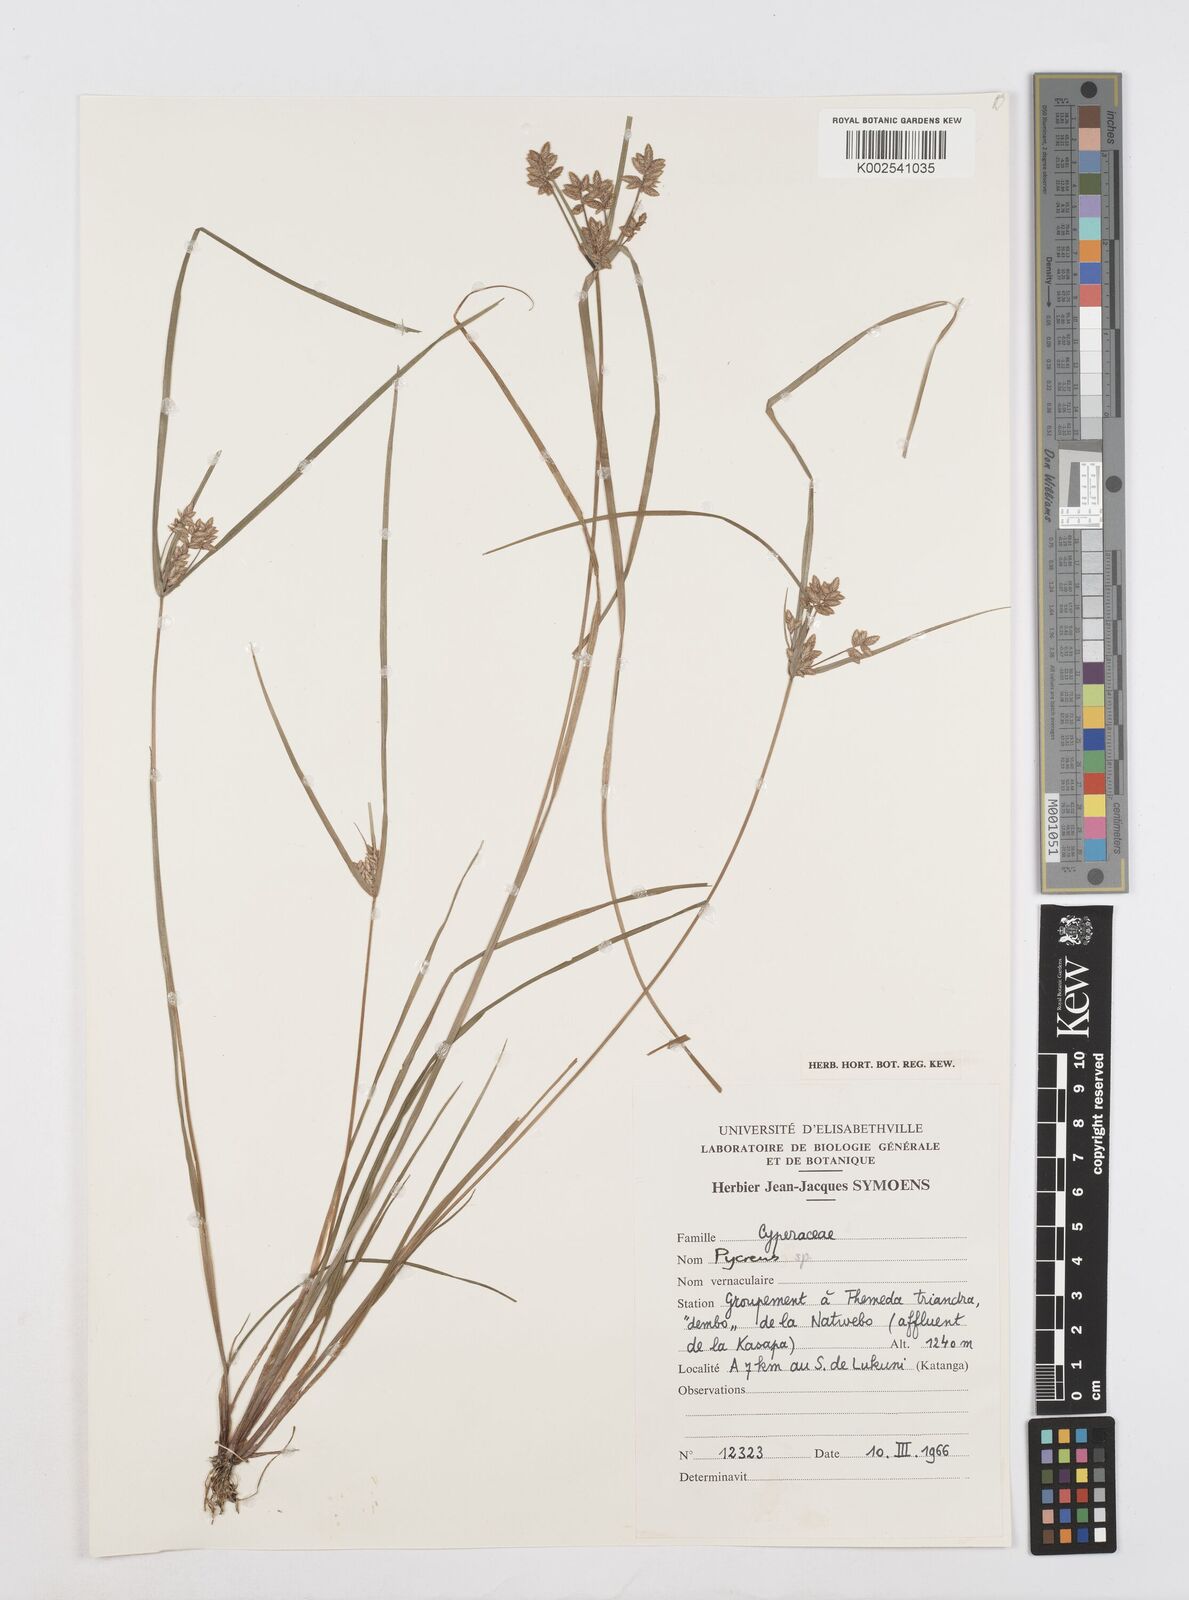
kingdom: Plantae
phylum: Tracheophyta
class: Liliopsida
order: Poales
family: Cyperaceae
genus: Cyperus
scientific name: Cyperus
